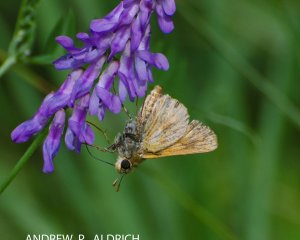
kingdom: Animalia
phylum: Arthropoda
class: Insecta
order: Lepidoptera
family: Hesperiidae
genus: Polites
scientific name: Polites themistocles
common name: Tawny-edged Skipper
